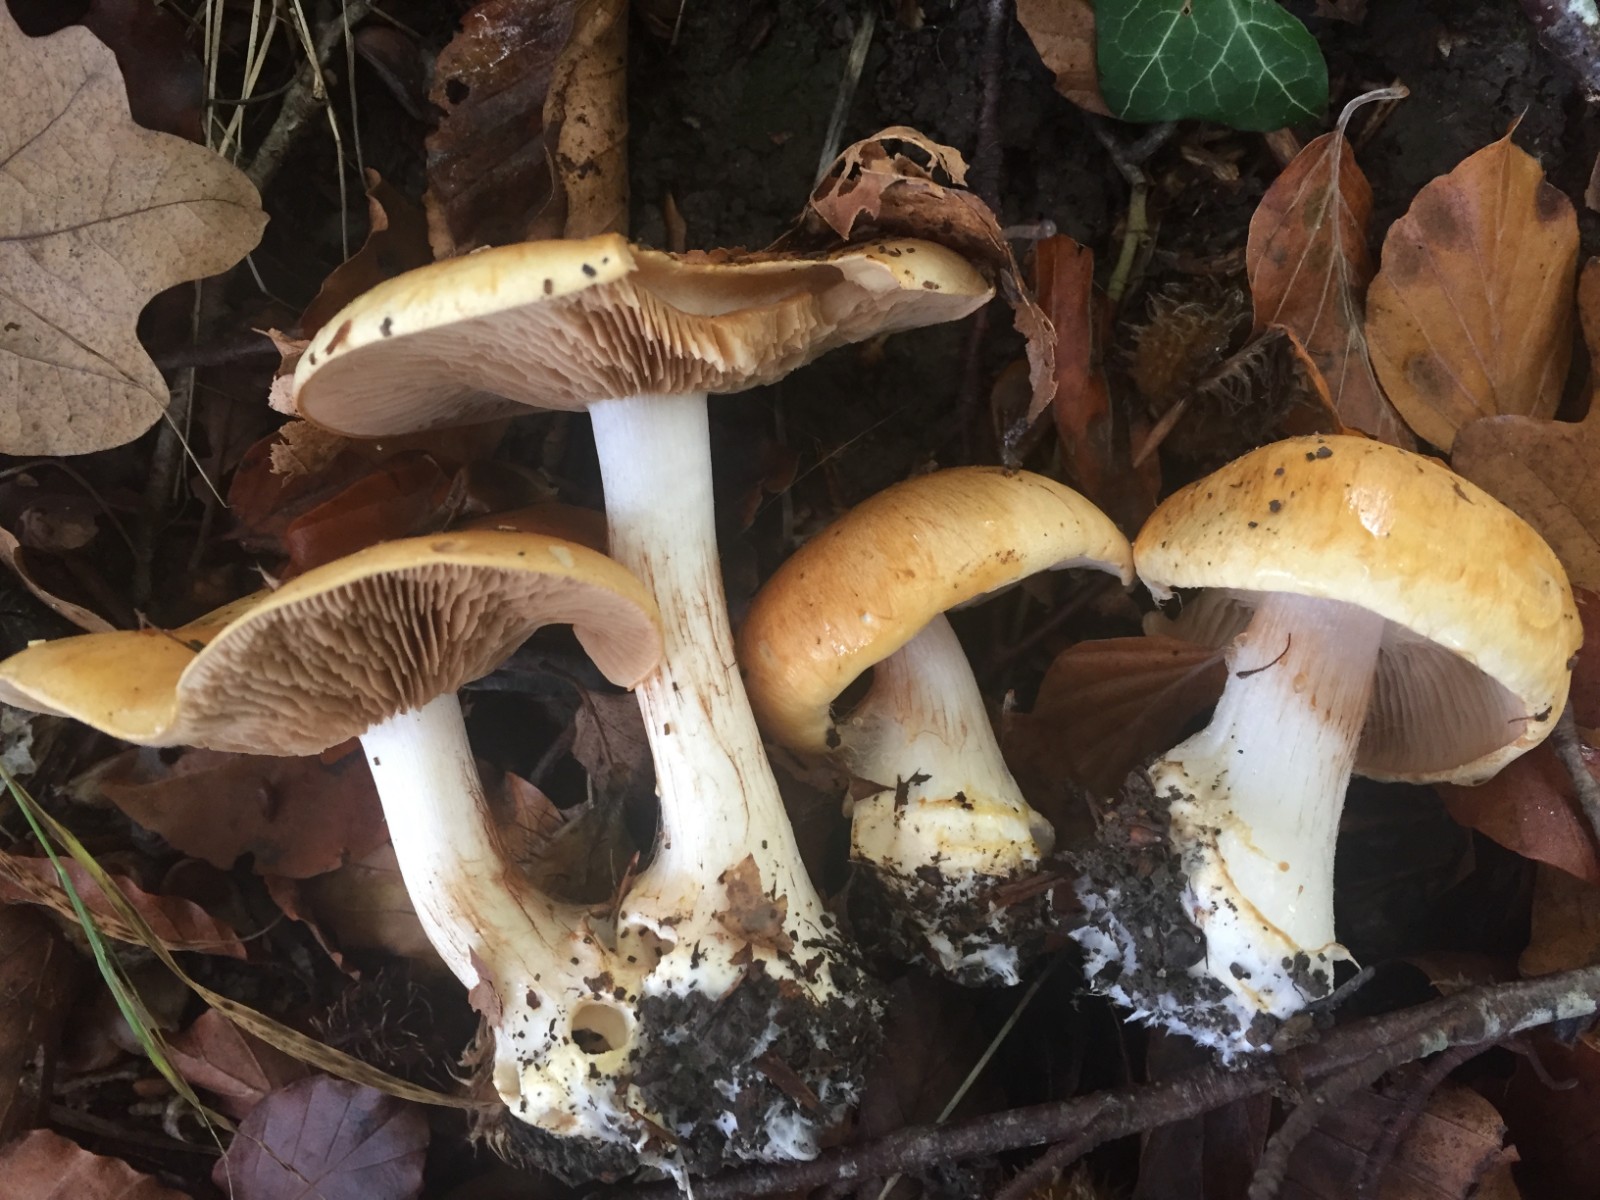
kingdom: Fungi
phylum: Basidiomycota
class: Agaricomycetes
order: Agaricales
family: Cortinariaceae
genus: Phlegmacium
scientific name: Phlegmacium rhizophorum
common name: finkornet slørhat
